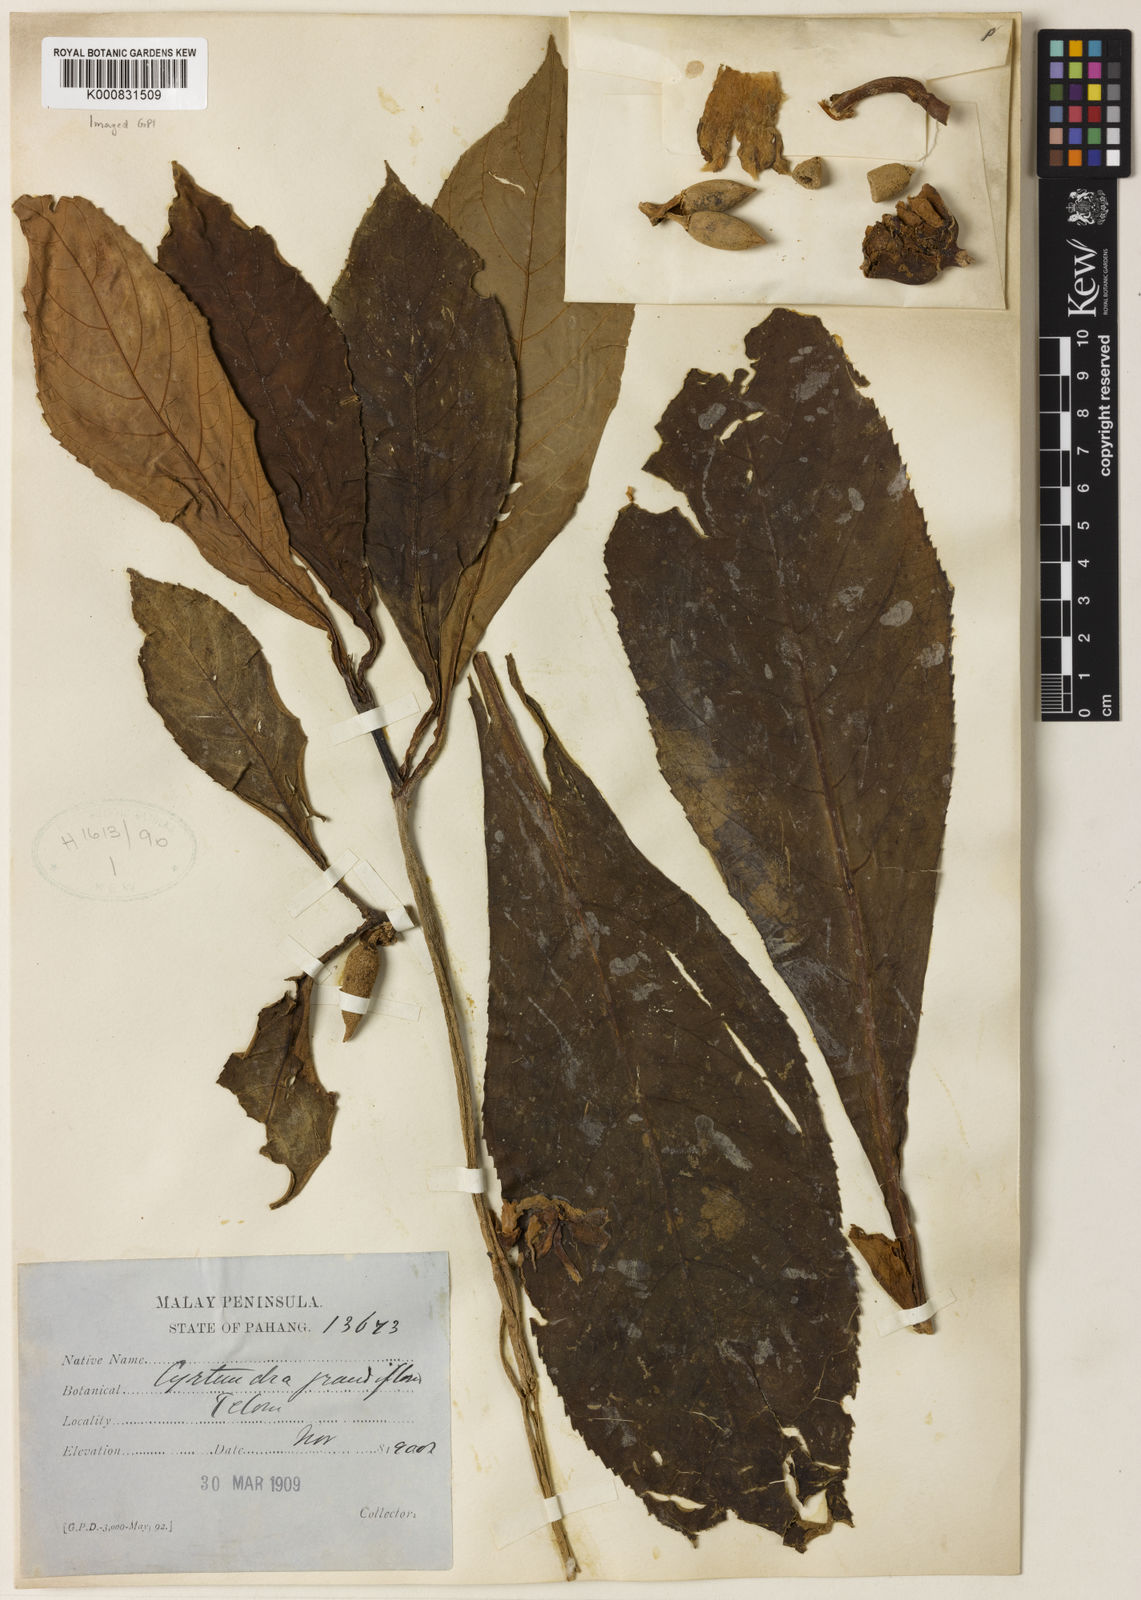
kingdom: Plantae
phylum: Tracheophyta
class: Magnoliopsida
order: Lamiales
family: Gesneriaceae
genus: Cyrtandra
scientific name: Cyrtandra wallichii
